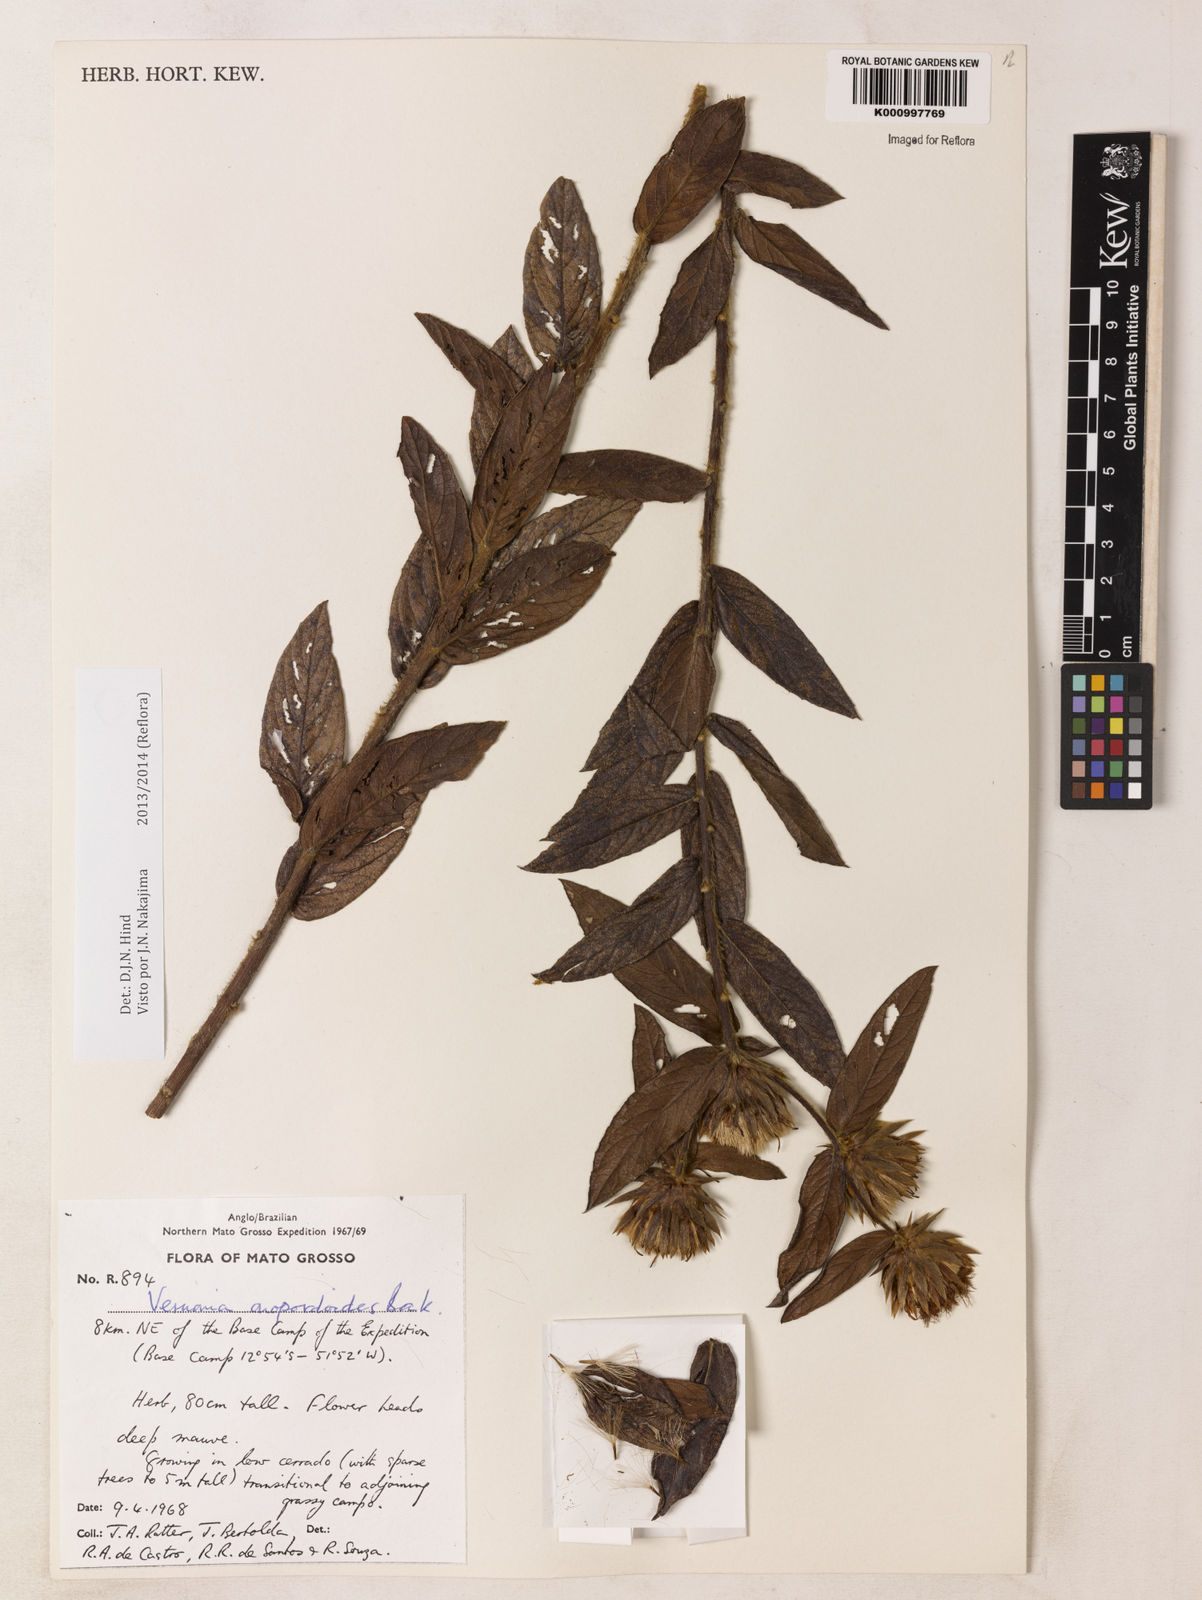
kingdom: Plantae
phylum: Tracheophyta
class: Magnoliopsida
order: Asterales
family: Asteraceae
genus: Lessingianthus
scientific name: Lessingianthus onopordioides
